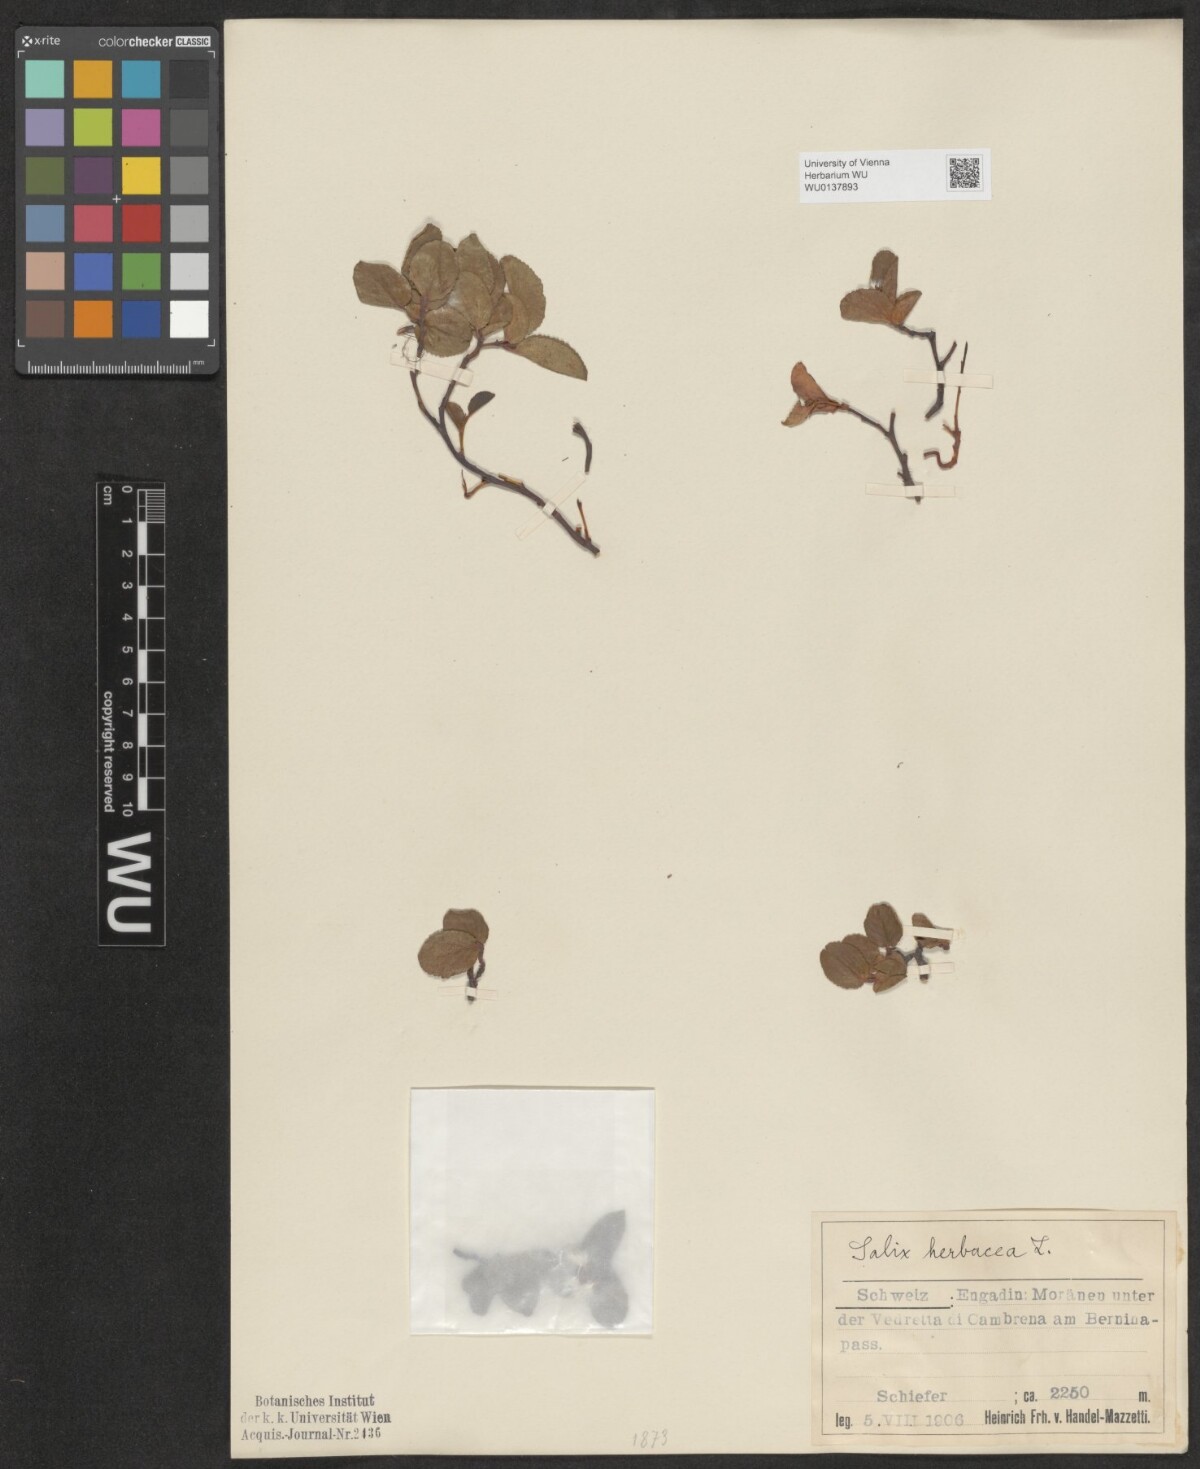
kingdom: Plantae
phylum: Tracheophyta
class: Magnoliopsida
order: Malpighiales
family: Salicaceae
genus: Salix
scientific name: Salix herbacea
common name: Dwarf willow
